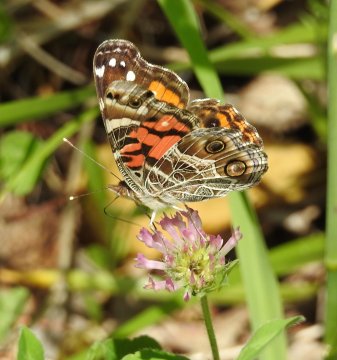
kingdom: Animalia
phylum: Arthropoda
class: Insecta
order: Lepidoptera
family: Nymphalidae
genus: Vanessa
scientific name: Vanessa virginiensis
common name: American Lady
